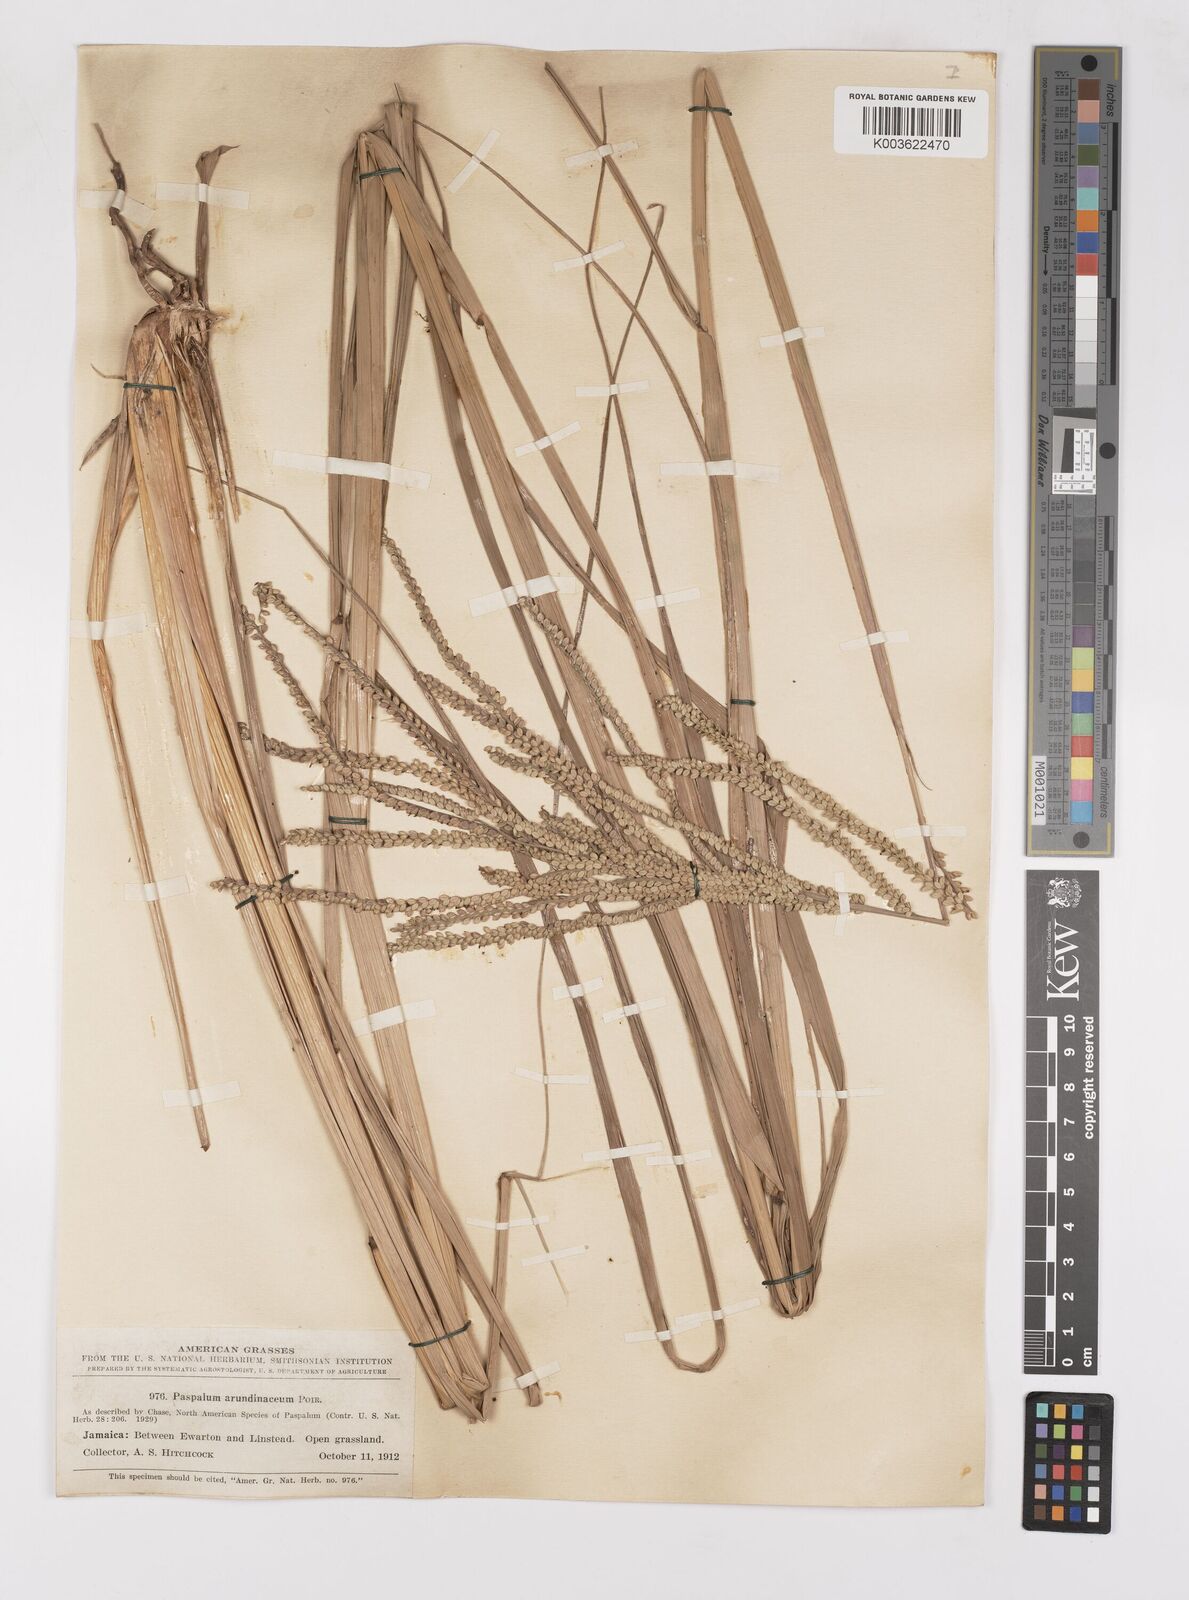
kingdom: Plantae
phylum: Tracheophyta
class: Liliopsida
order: Poales
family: Poaceae
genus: Paspalum
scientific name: Paspalum arundinaceum
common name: Thick ditch crowngrass
